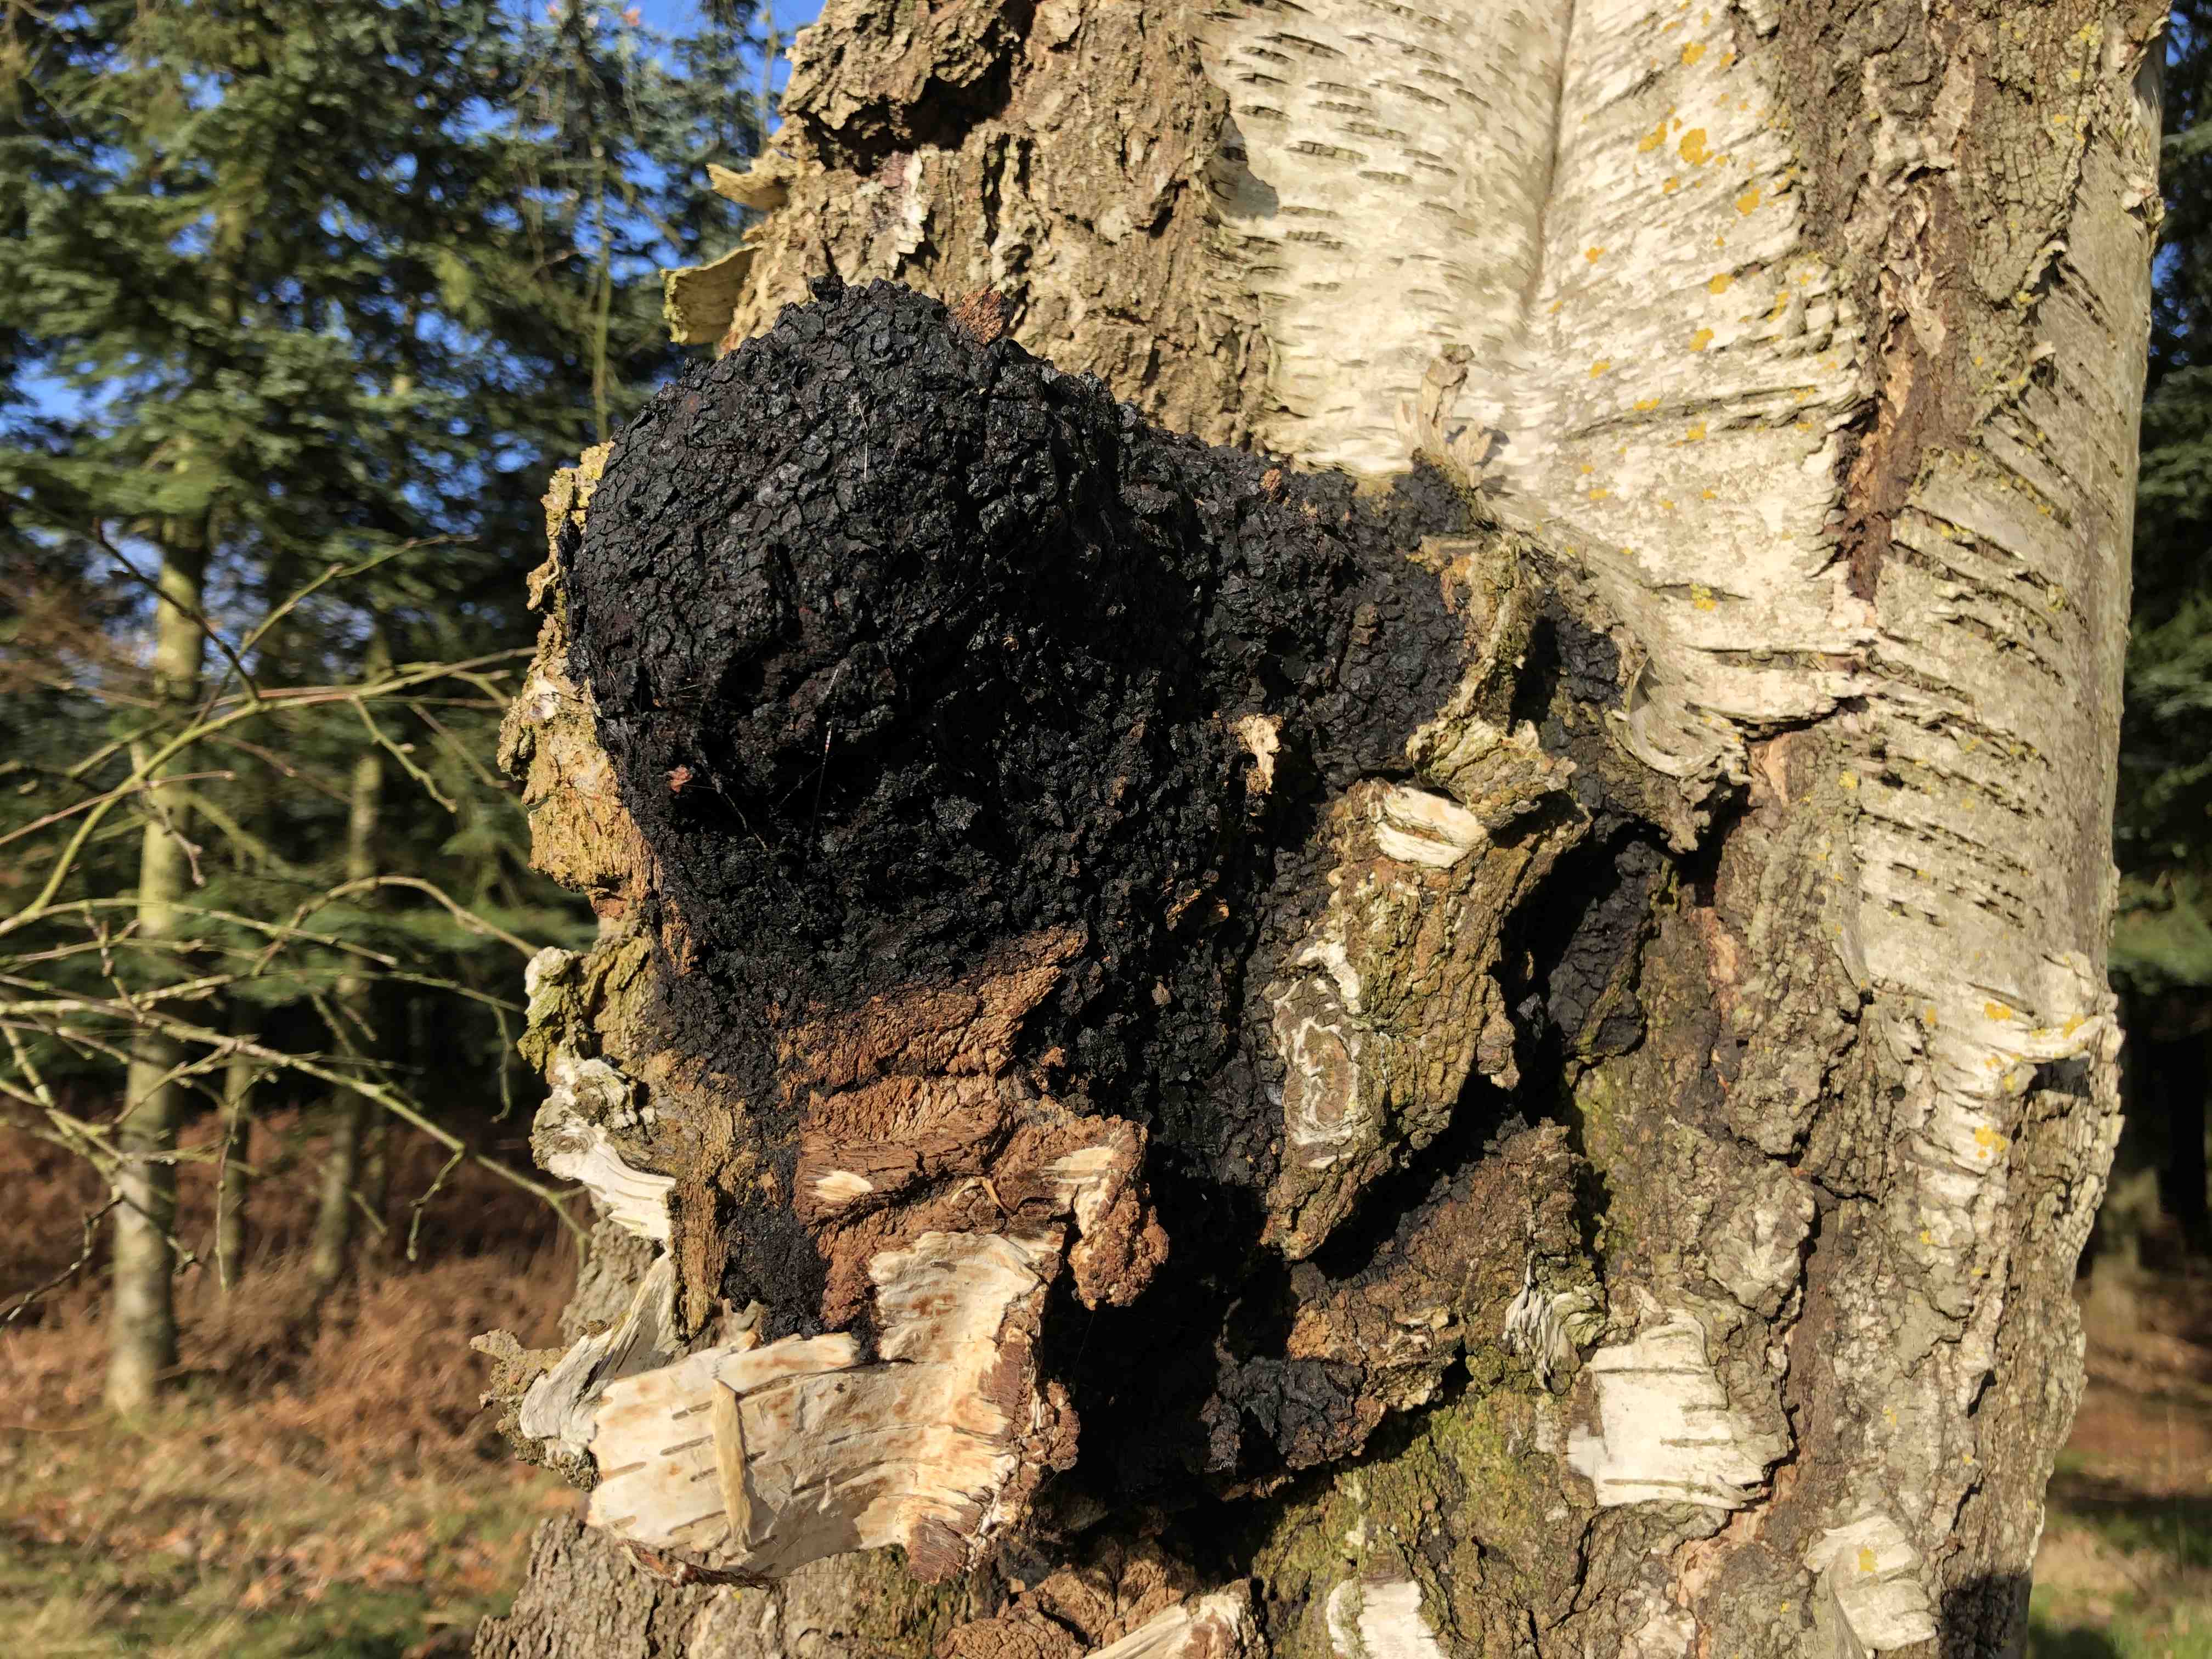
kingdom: Fungi
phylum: Basidiomycota
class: Agaricomycetes
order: Hymenochaetales
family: Hymenochaetaceae
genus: Inonotus
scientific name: Inonotus obliquus
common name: birke-spejlporesvamp
